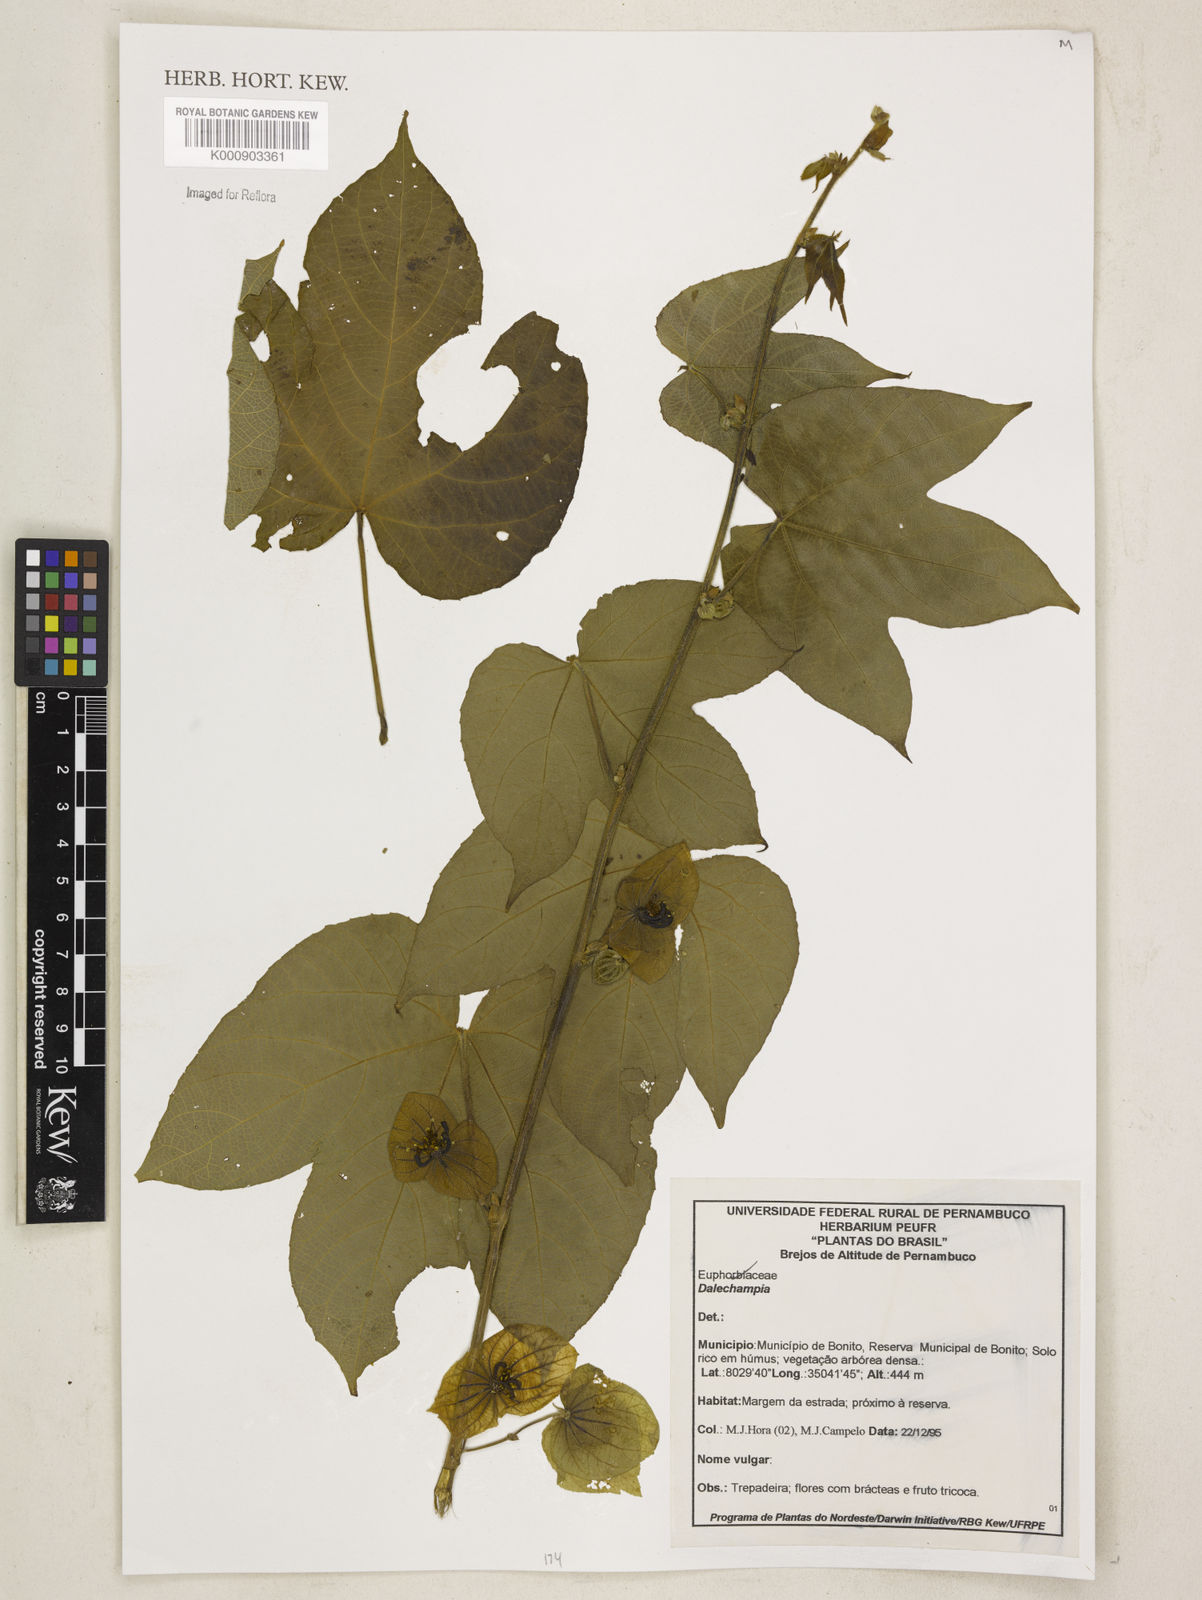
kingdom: Plantae
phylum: Tracheophyta
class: Magnoliopsida
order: Malpighiales
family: Euphorbiaceae
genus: Dalechampia
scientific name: Dalechampia
